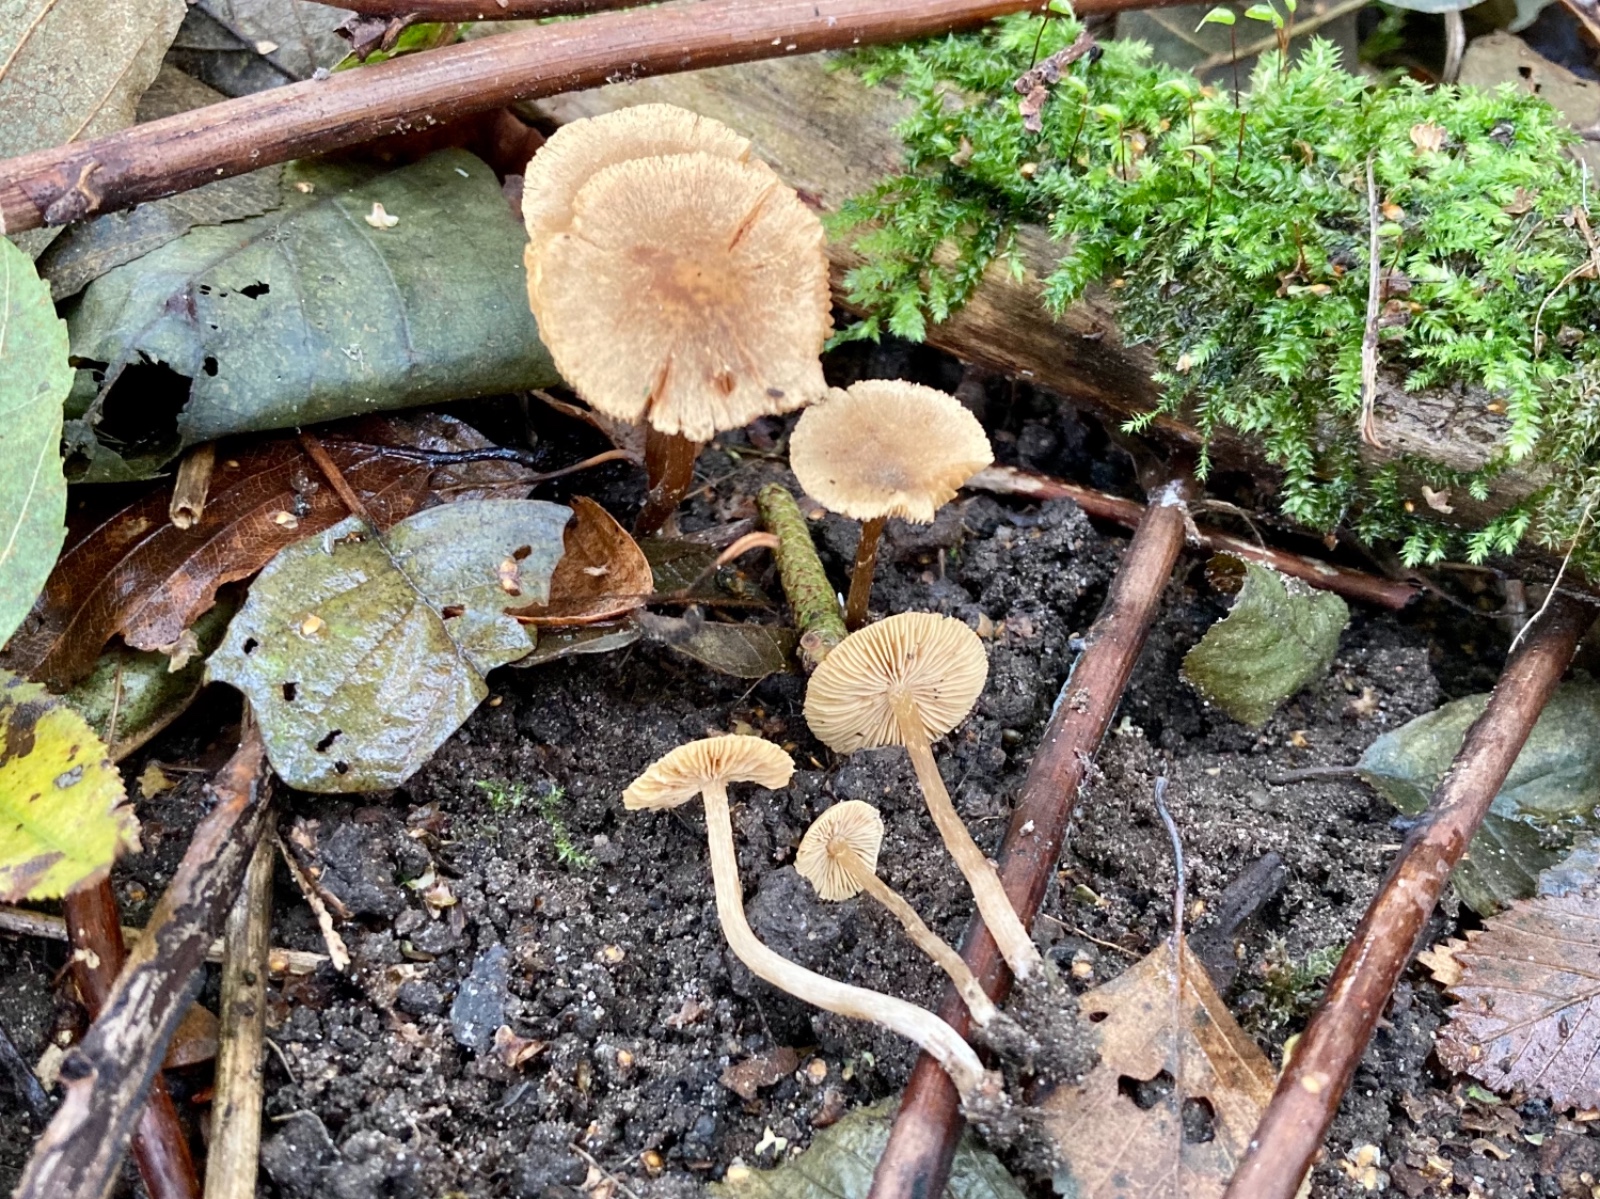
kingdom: Fungi
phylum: Basidiomycota
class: Agaricomycetes
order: Agaricales
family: Hymenogastraceae
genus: Naucoria
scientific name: Naucoria escharioides
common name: lys elle-knaphat
